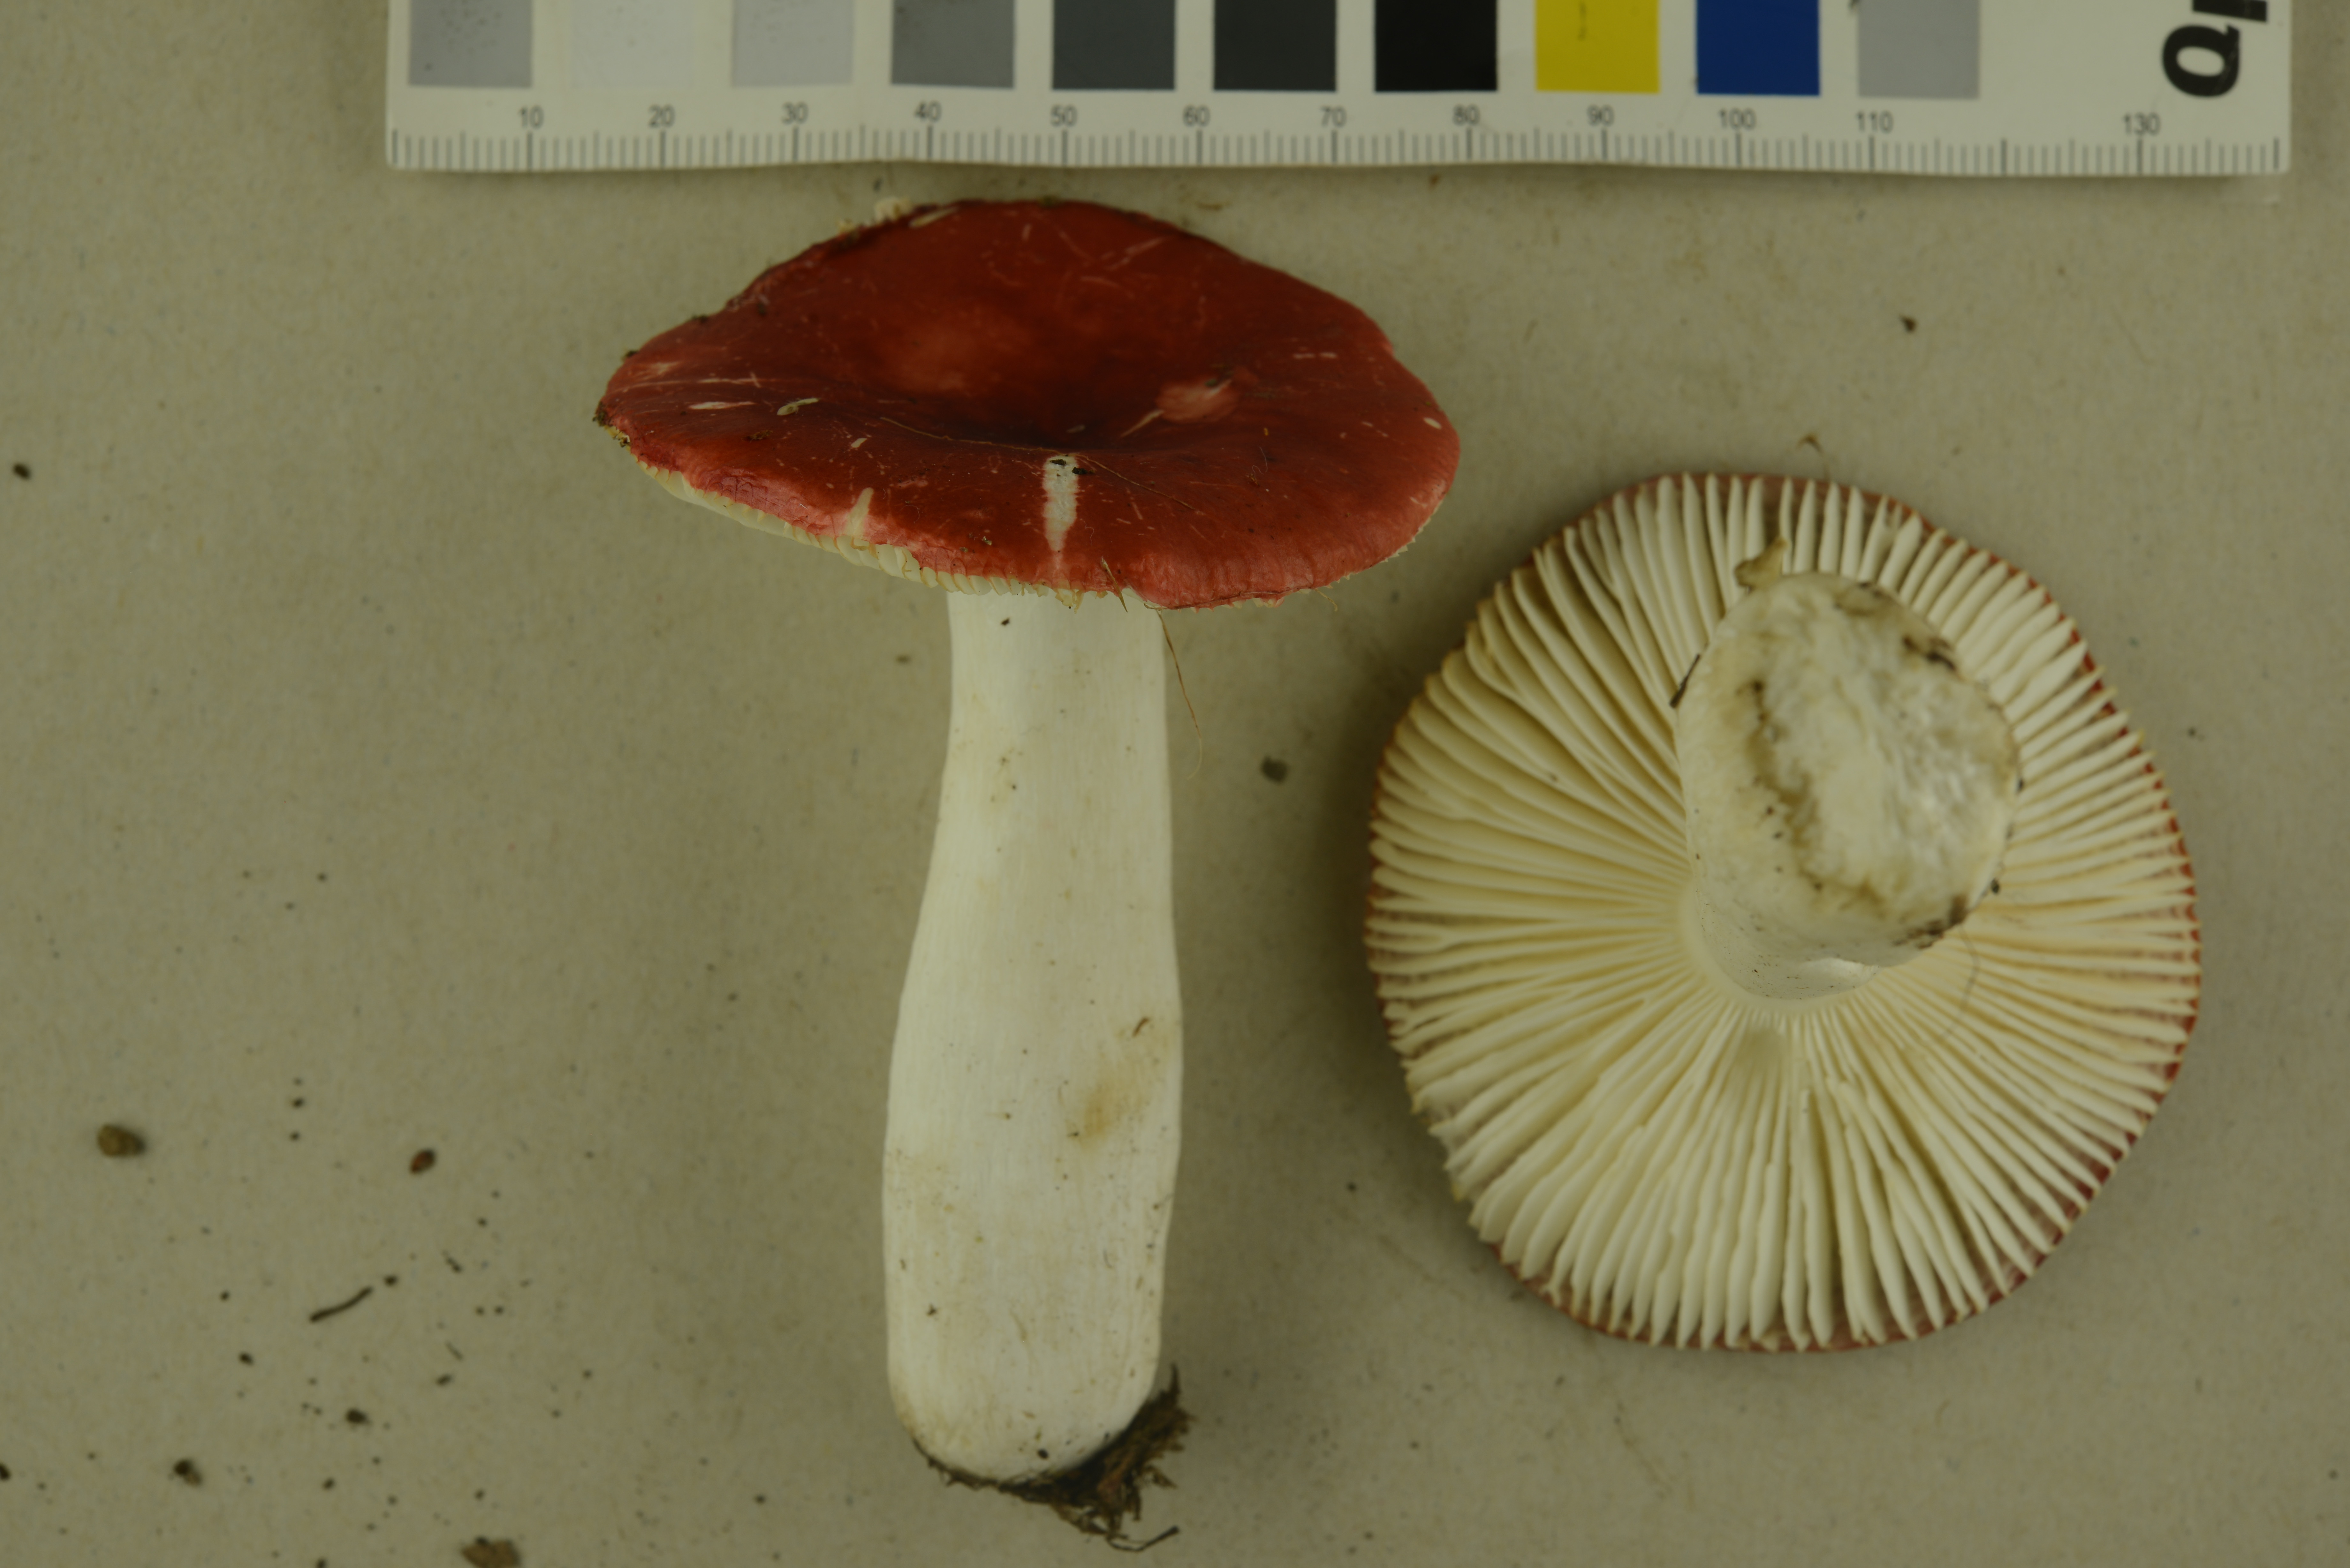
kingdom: Fungi
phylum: Basidiomycota
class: Agaricomycetes
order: Russulales
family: Russulaceae
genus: Russula
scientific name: Russula emetica
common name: Sickener
